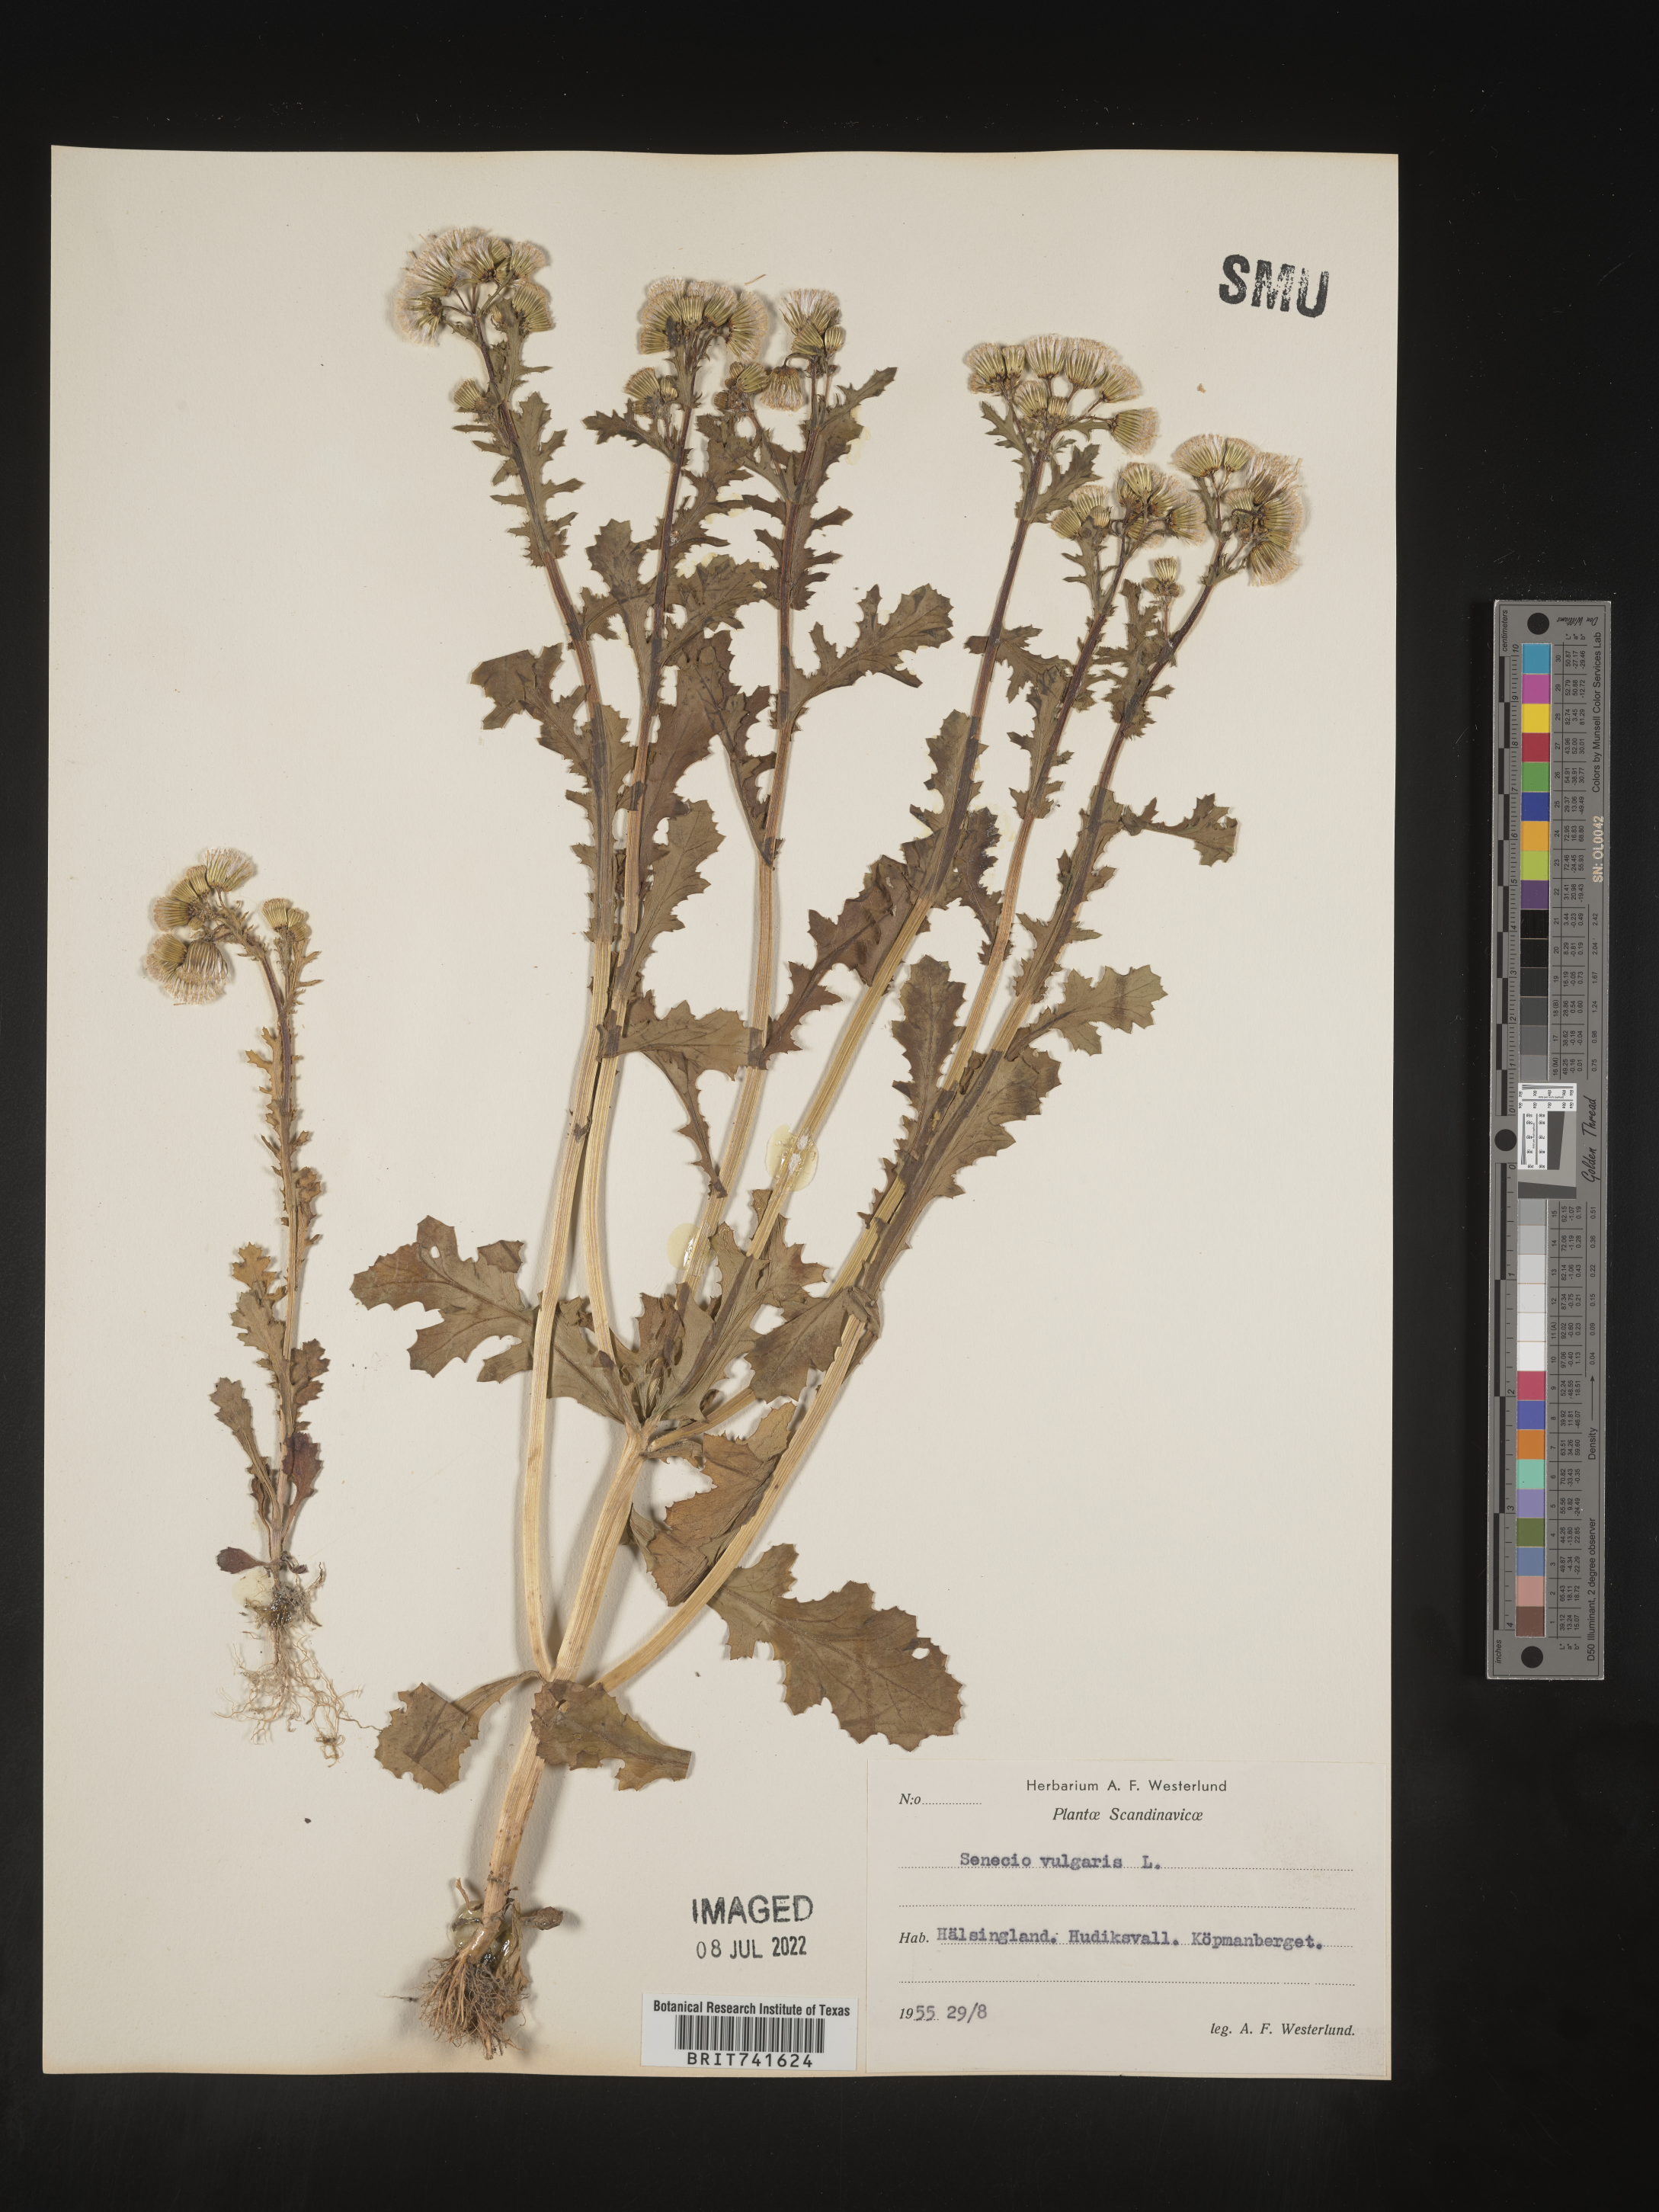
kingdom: Plantae
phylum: Tracheophyta
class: Magnoliopsida
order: Asterales
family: Asteraceae
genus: Senecio
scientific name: Senecio
